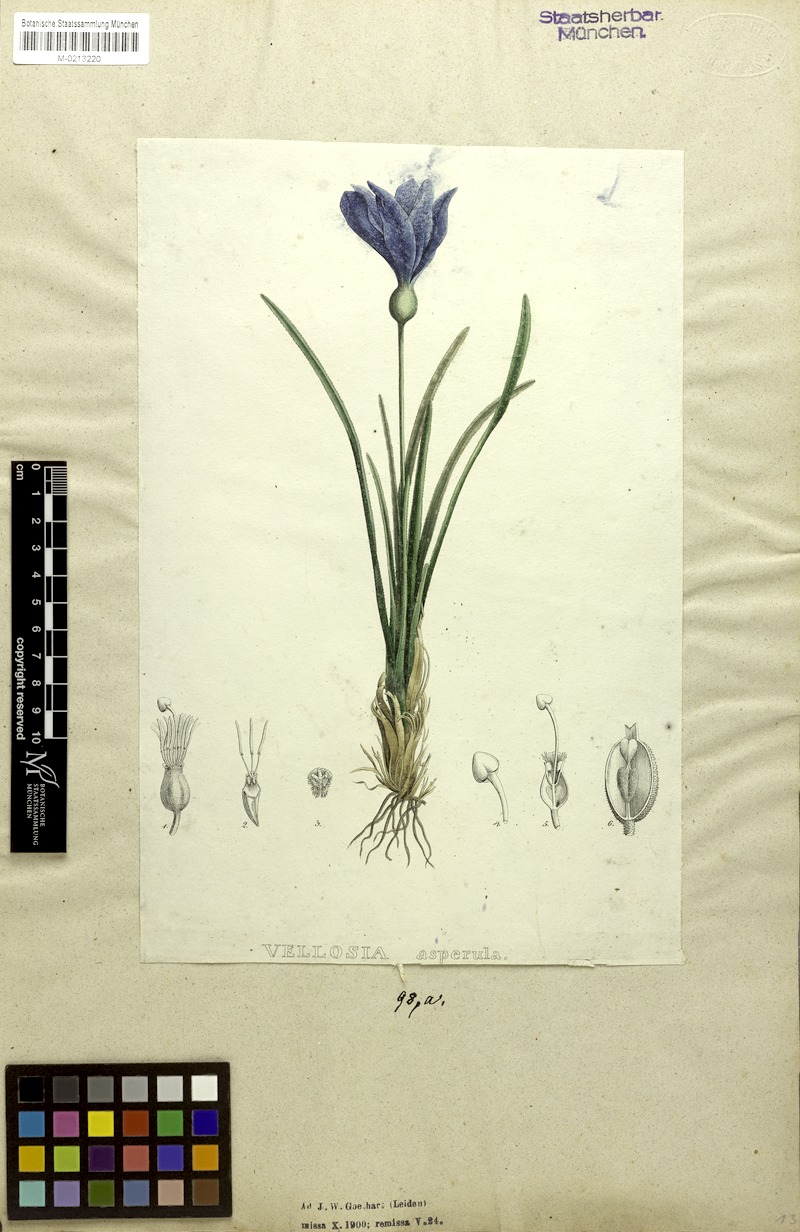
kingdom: Plantae
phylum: Tracheophyta
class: Liliopsida
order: Pandanales
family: Velloziaceae
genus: Vellozia
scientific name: Vellozia asperula
